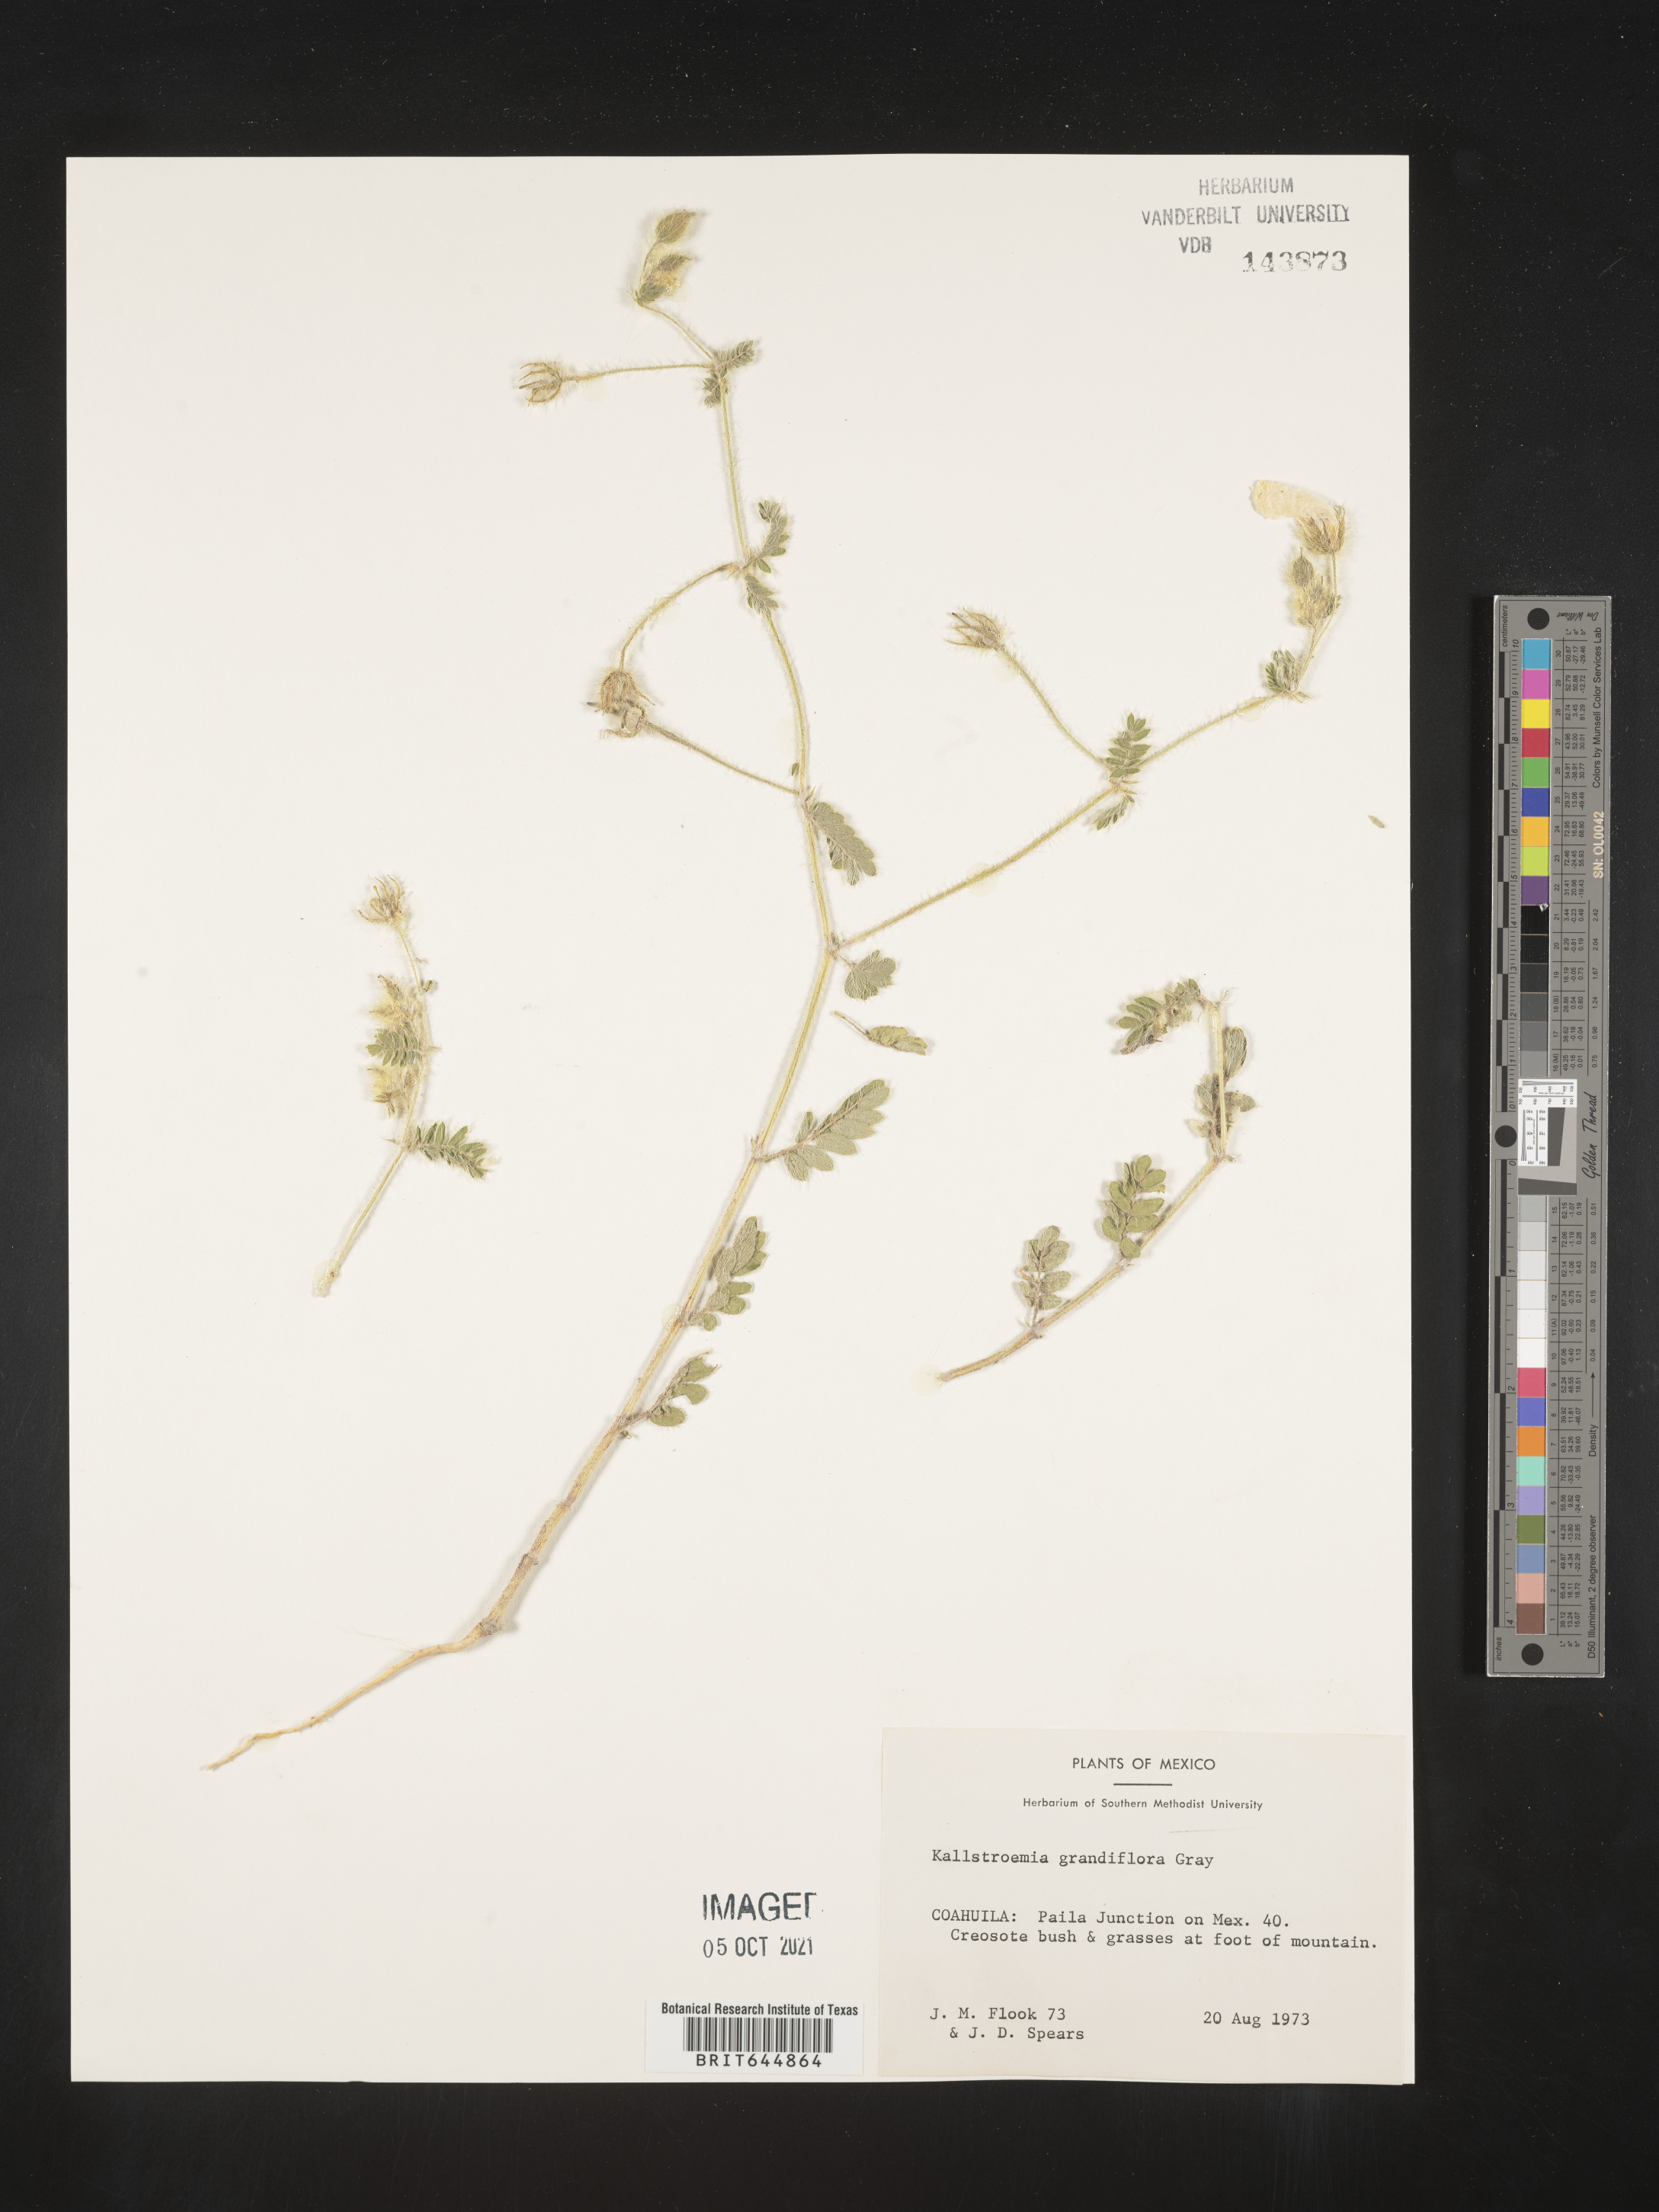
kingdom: Plantae
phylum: Tracheophyta
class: Magnoliopsida
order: Zygophyllales
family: Zygophyllaceae
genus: Kallstroemia
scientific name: Kallstroemia
